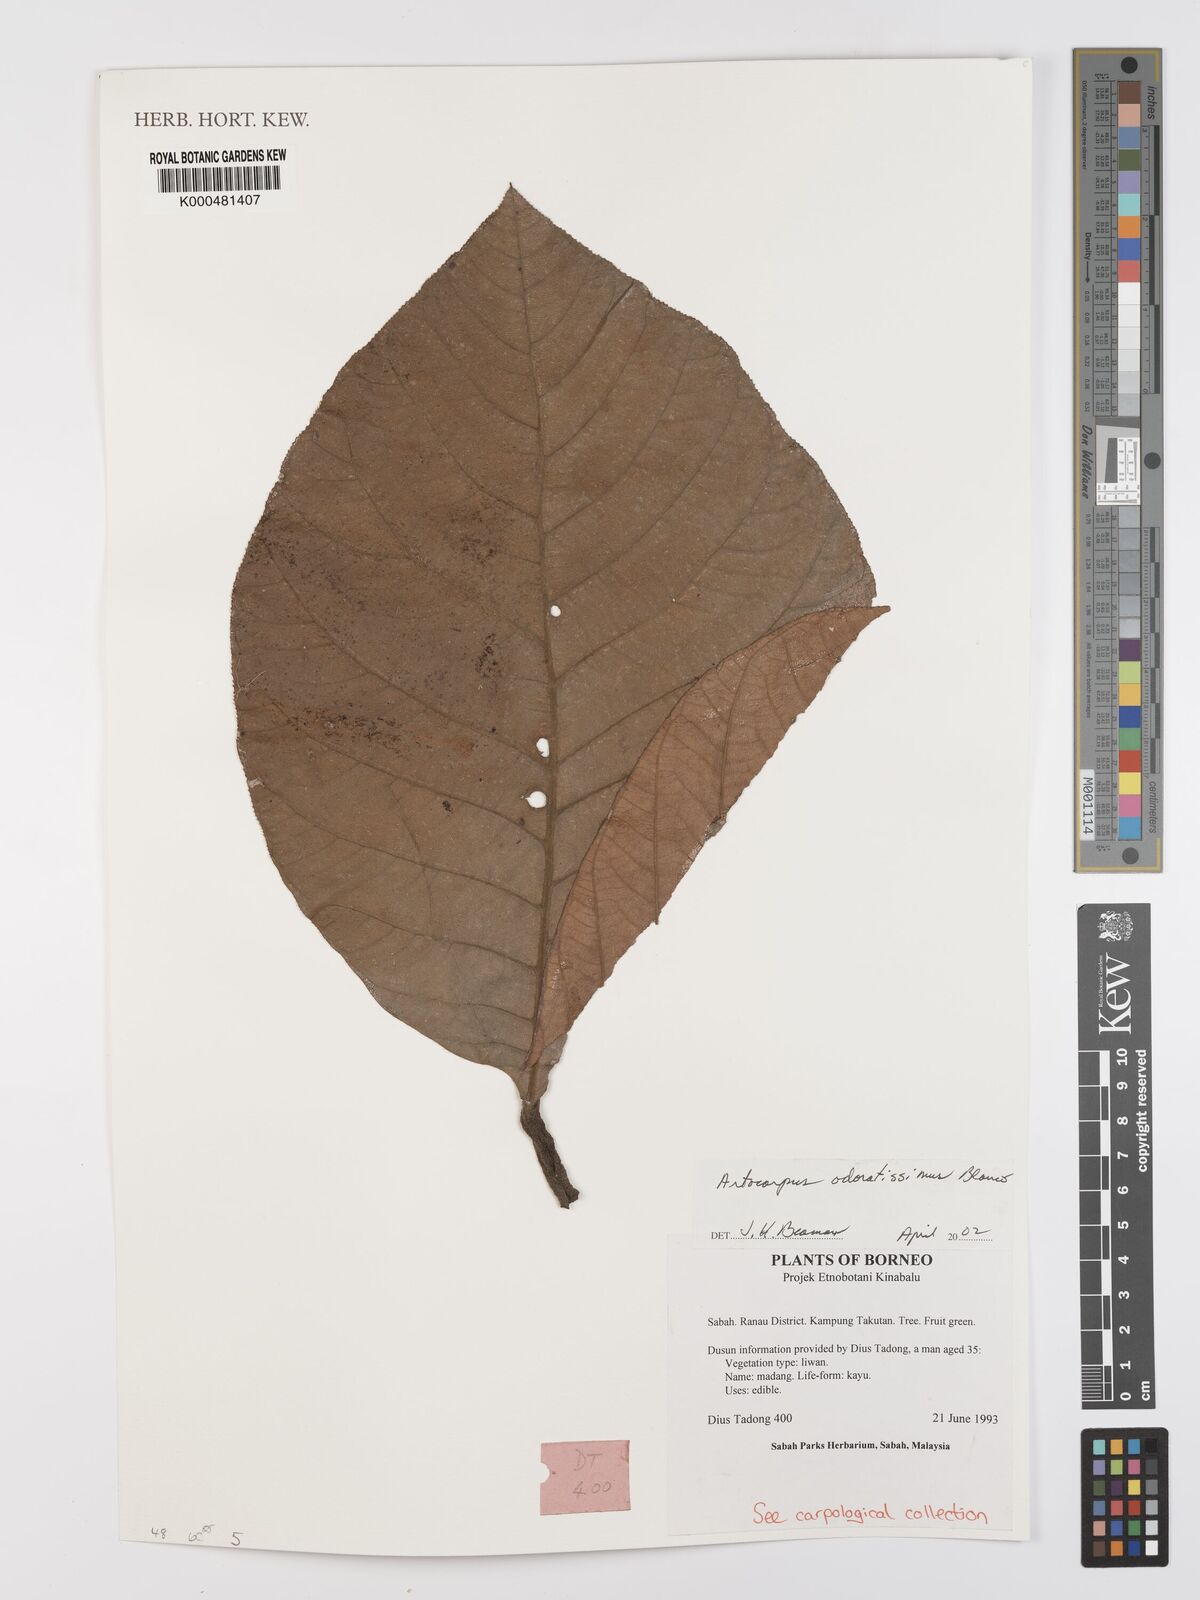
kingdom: Plantae
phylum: Tracheophyta
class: Magnoliopsida
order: Rosales
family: Moraceae
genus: Artocarpus
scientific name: Artocarpus odoratissimus
